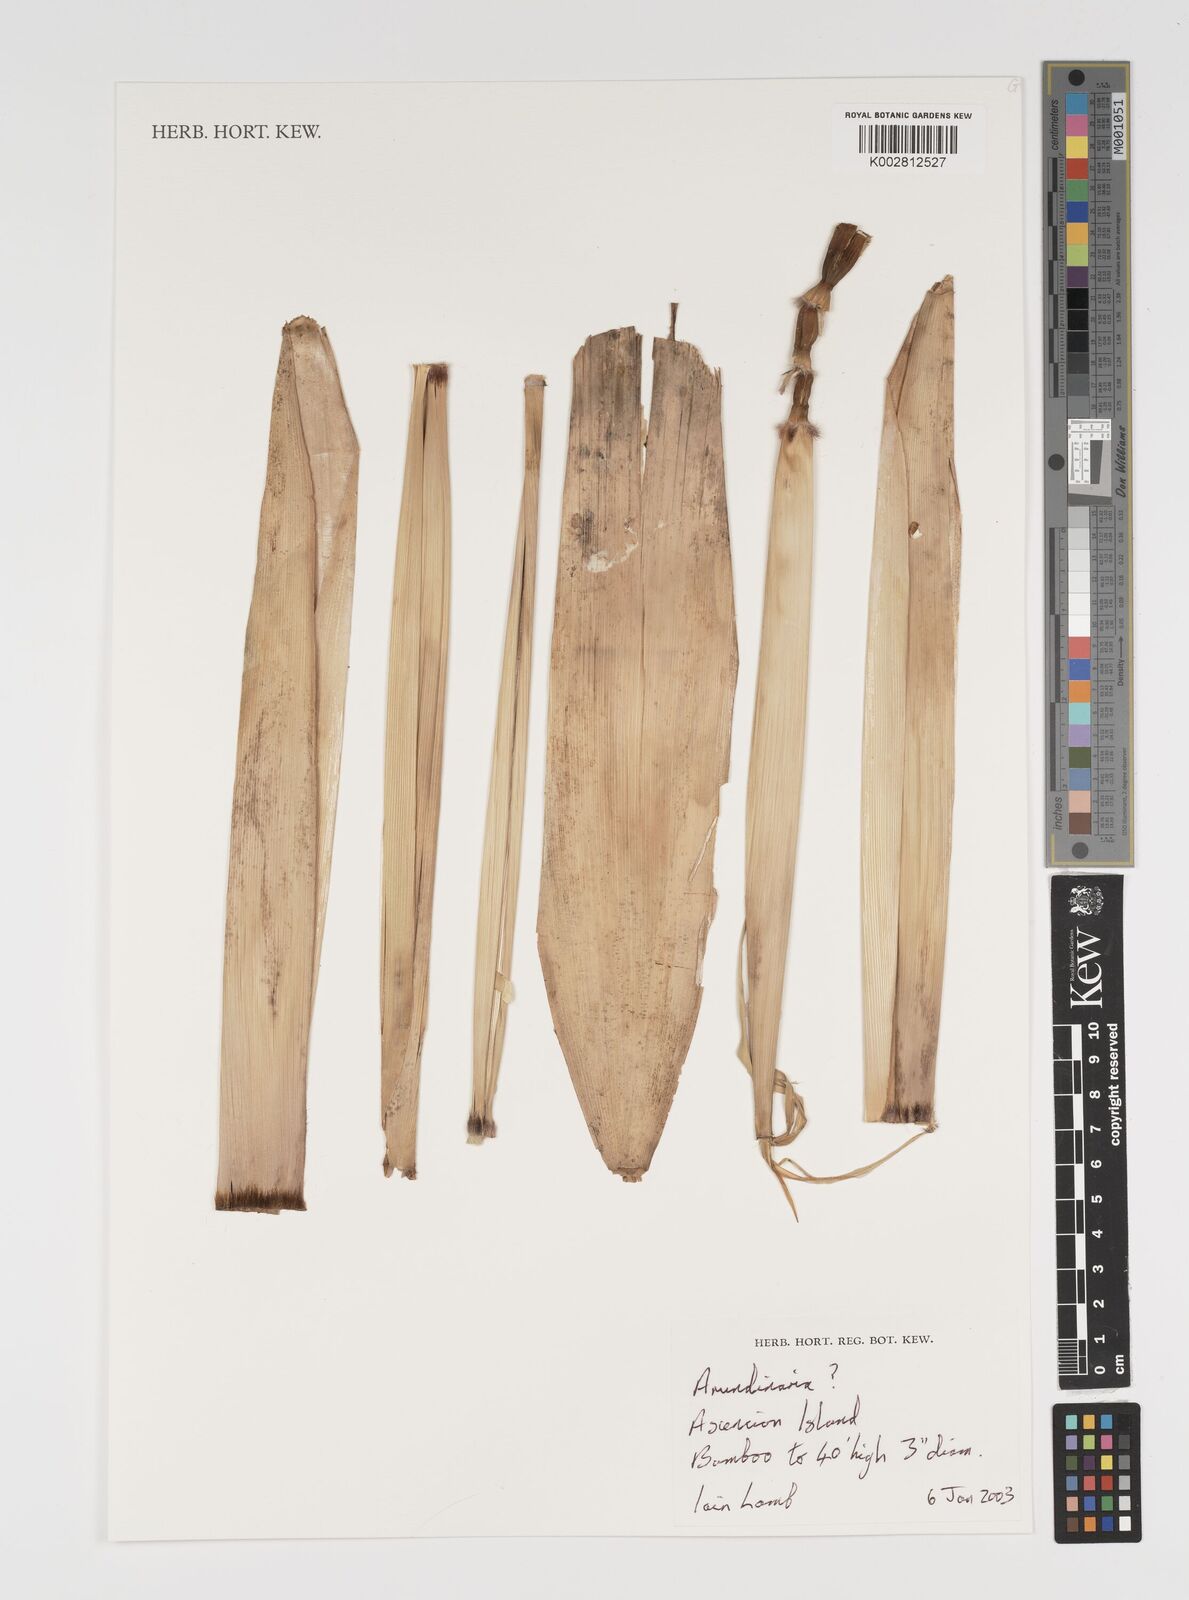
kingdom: Plantae
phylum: Tracheophyta
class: Liliopsida
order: Poales
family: Poaceae
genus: Arundinaria
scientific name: Arundinaria
